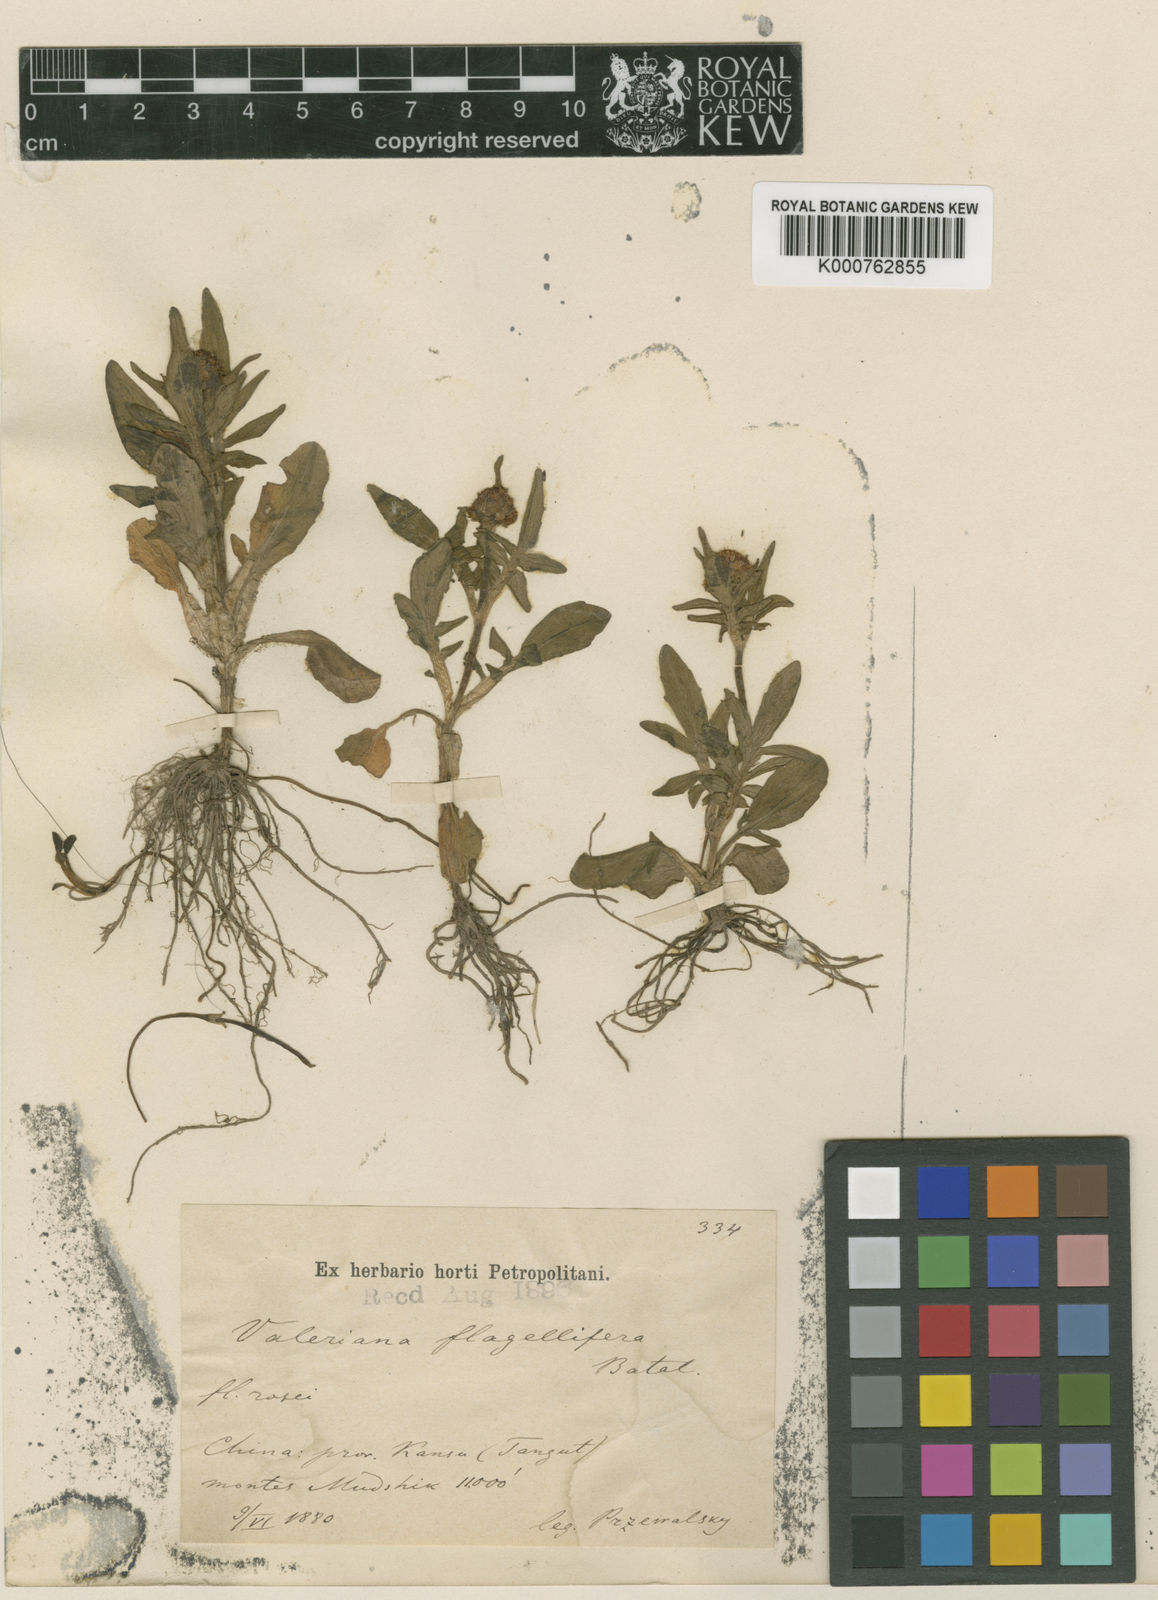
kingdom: Plantae
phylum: Tracheophyta
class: Magnoliopsida
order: Dipsacales
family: Caprifoliaceae
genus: Valeriana
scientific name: Valeriana flagellifera
